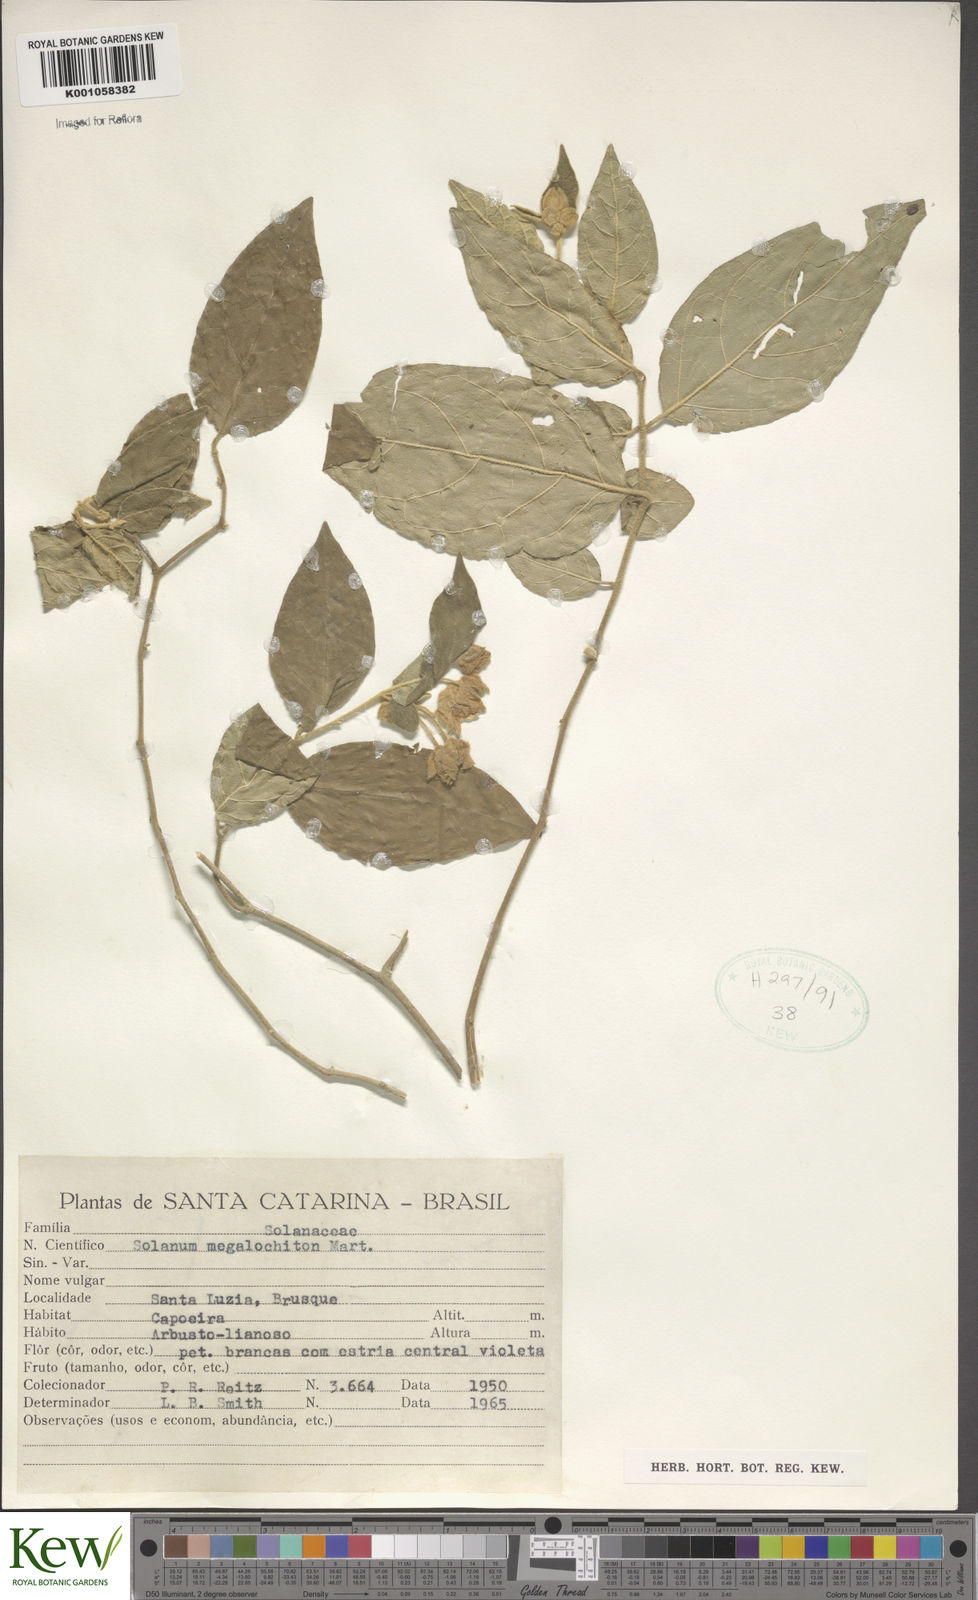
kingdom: Plantae
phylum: Tracheophyta
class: Magnoliopsida
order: Solanales
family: Solanaceae
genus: Solanum
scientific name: Solanum didymum
